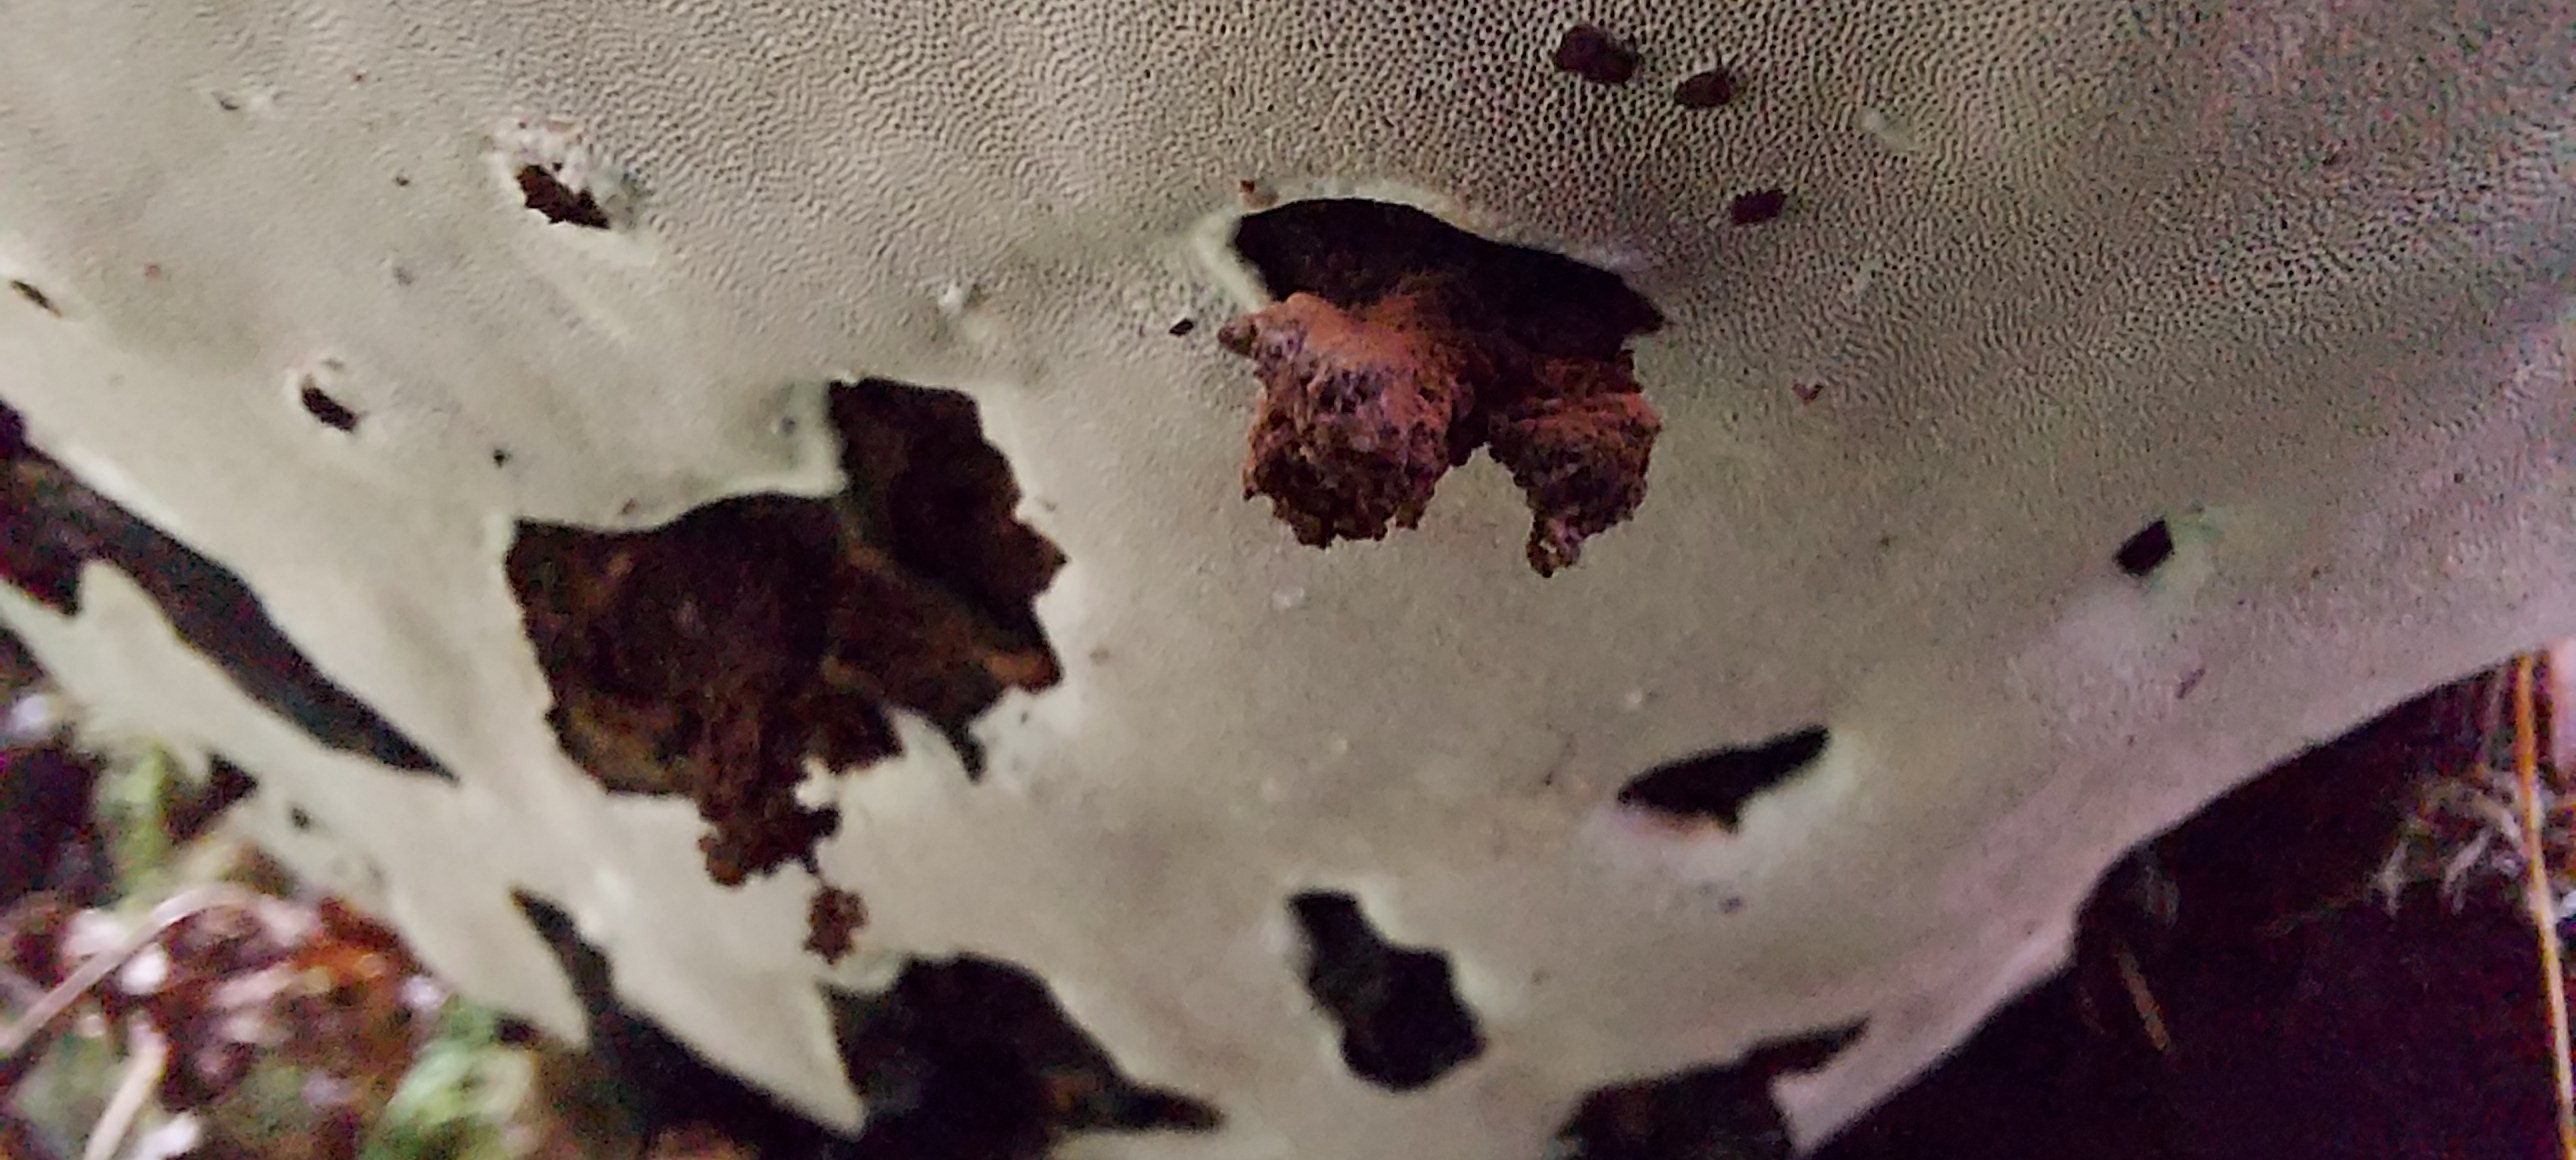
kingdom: Fungi
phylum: Basidiomycota
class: Agaricomycetes
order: Polyporales
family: Polyporaceae
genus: Ganoderma
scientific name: Ganoderma applanatum
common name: flad lakporesvamp
